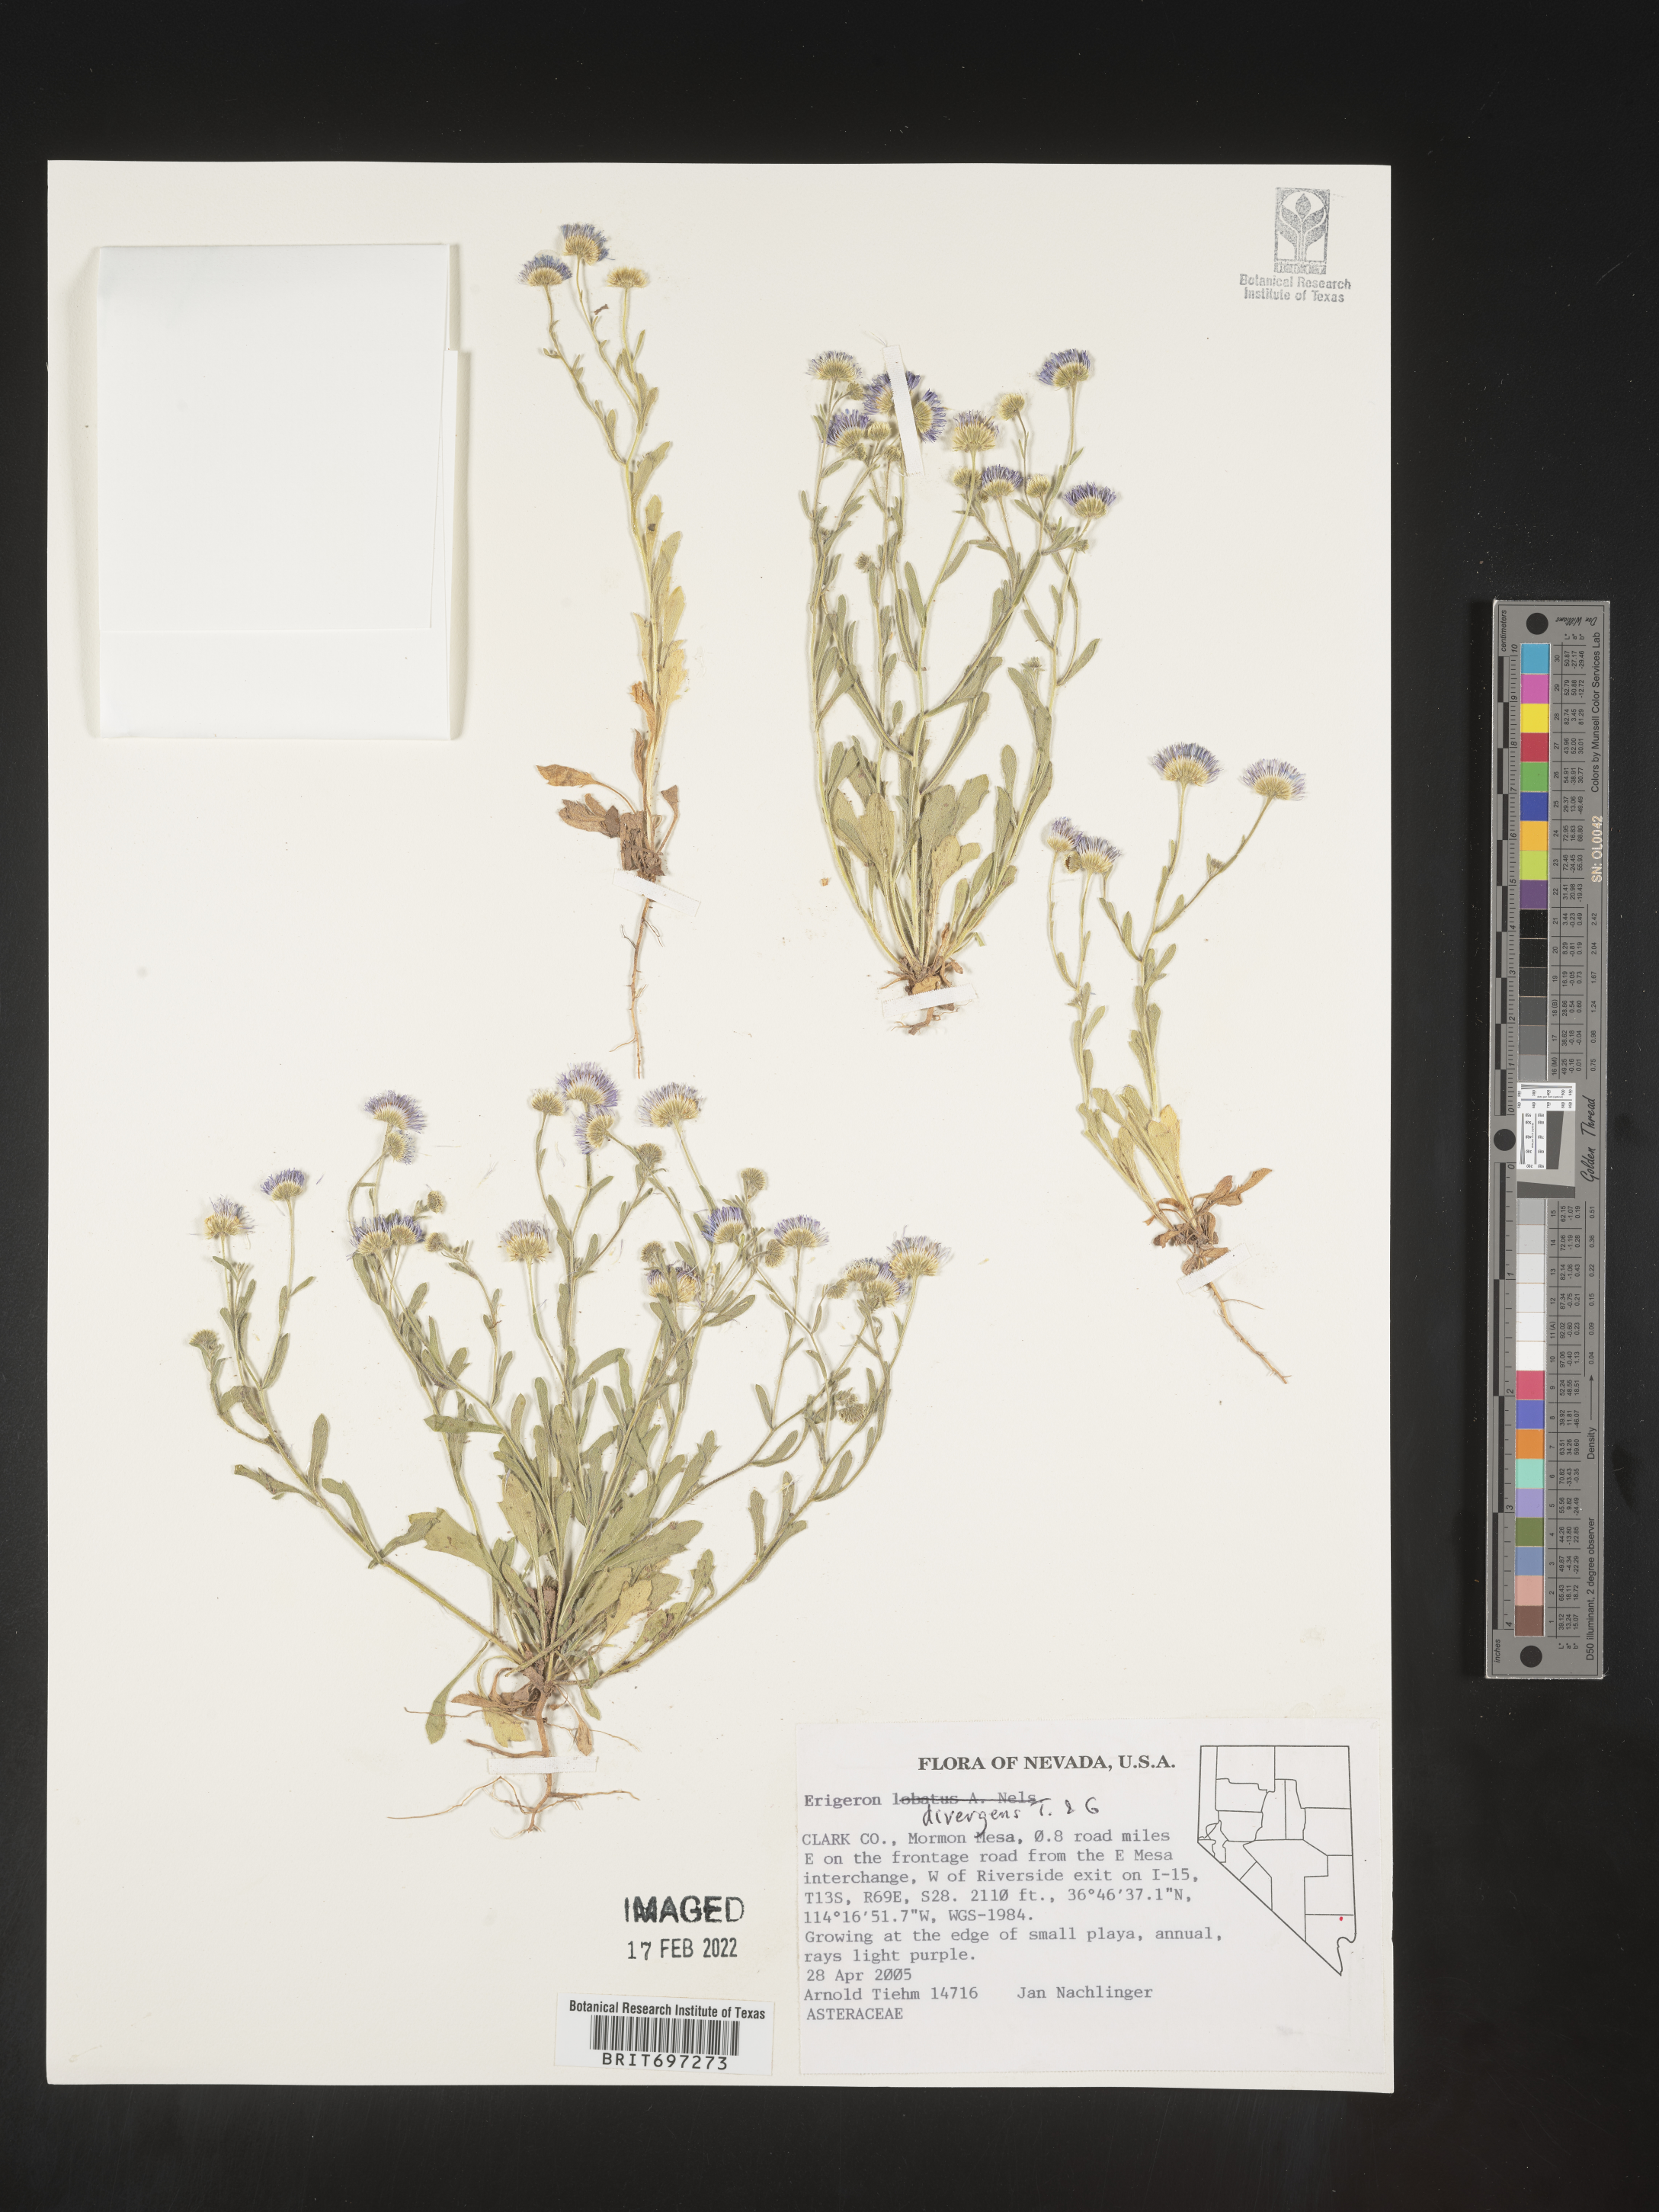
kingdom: Plantae
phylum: Tracheophyta
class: Magnoliopsida
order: Asterales
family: Asteraceae
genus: Erigeron
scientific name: Erigeron divergens
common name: Diffuse fleabane
